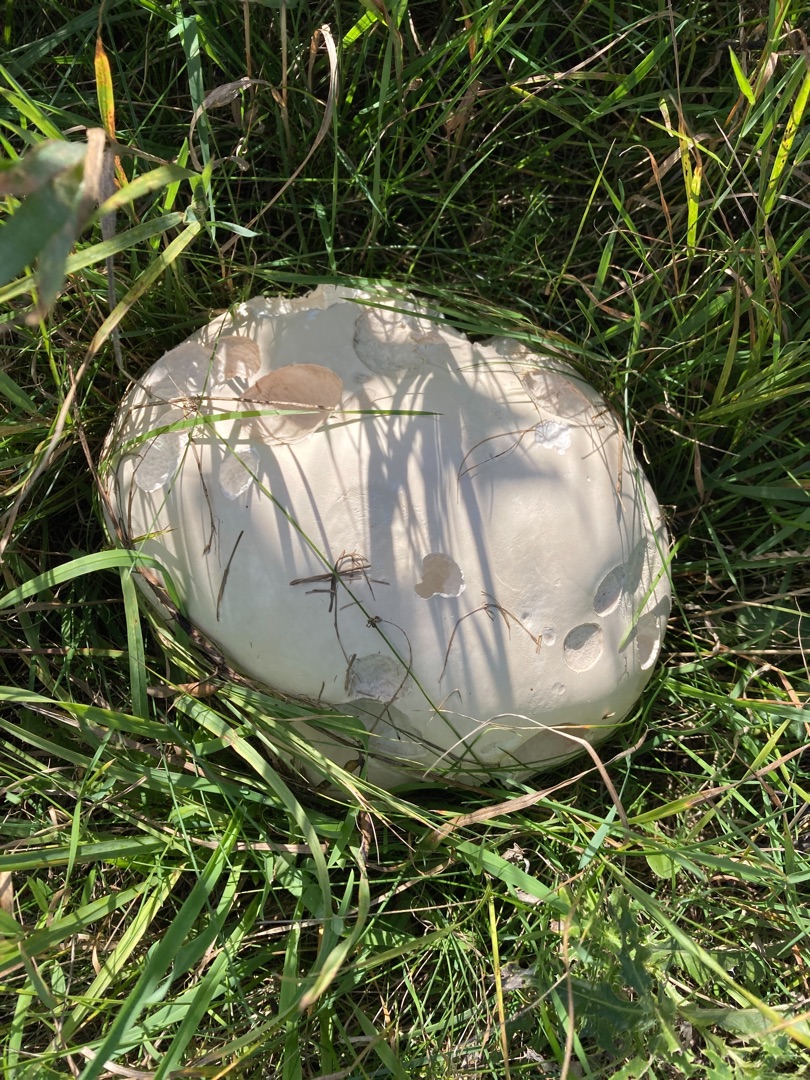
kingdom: Fungi
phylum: Basidiomycota
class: Agaricomycetes
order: Agaricales
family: Lycoperdaceae
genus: Calvatia
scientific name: Calvatia gigantea
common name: Kæmpestøvbold
